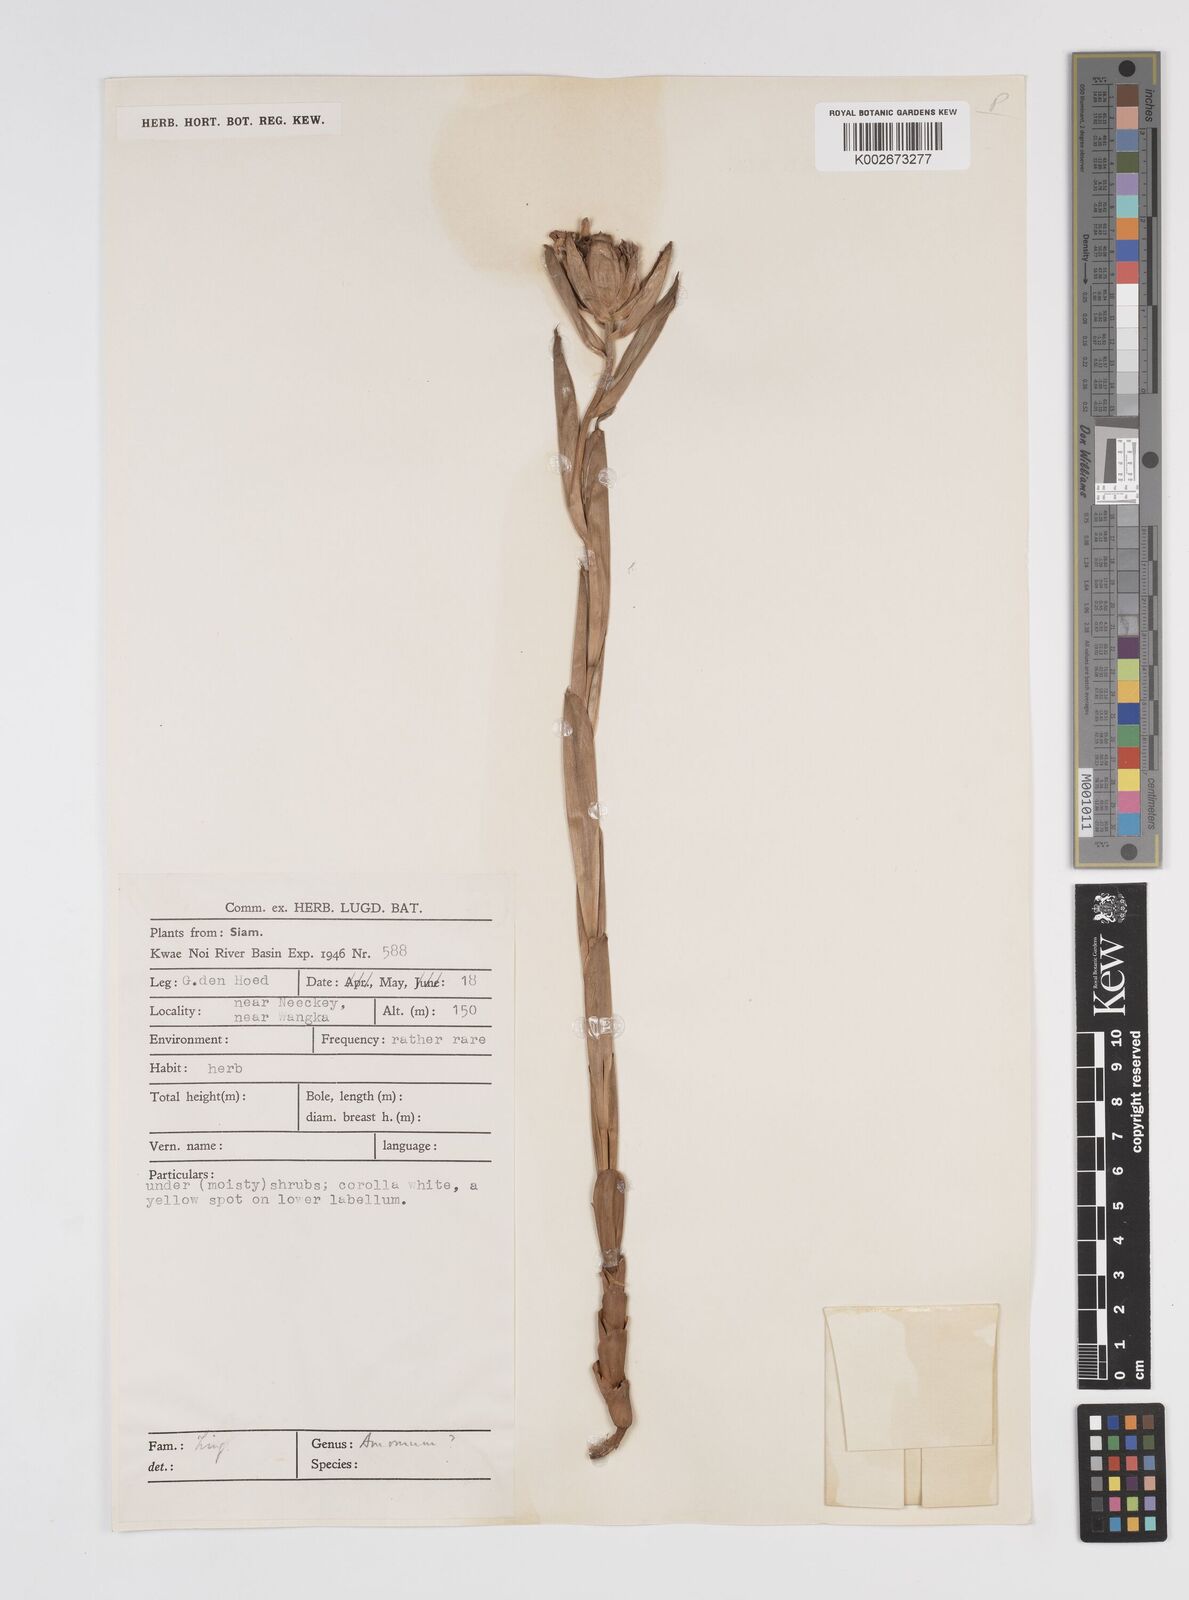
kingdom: Plantae
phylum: Tracheophyta
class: Liliopsida
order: Zingiberales
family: Zingiberaceae
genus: Amomum
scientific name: Amomum
